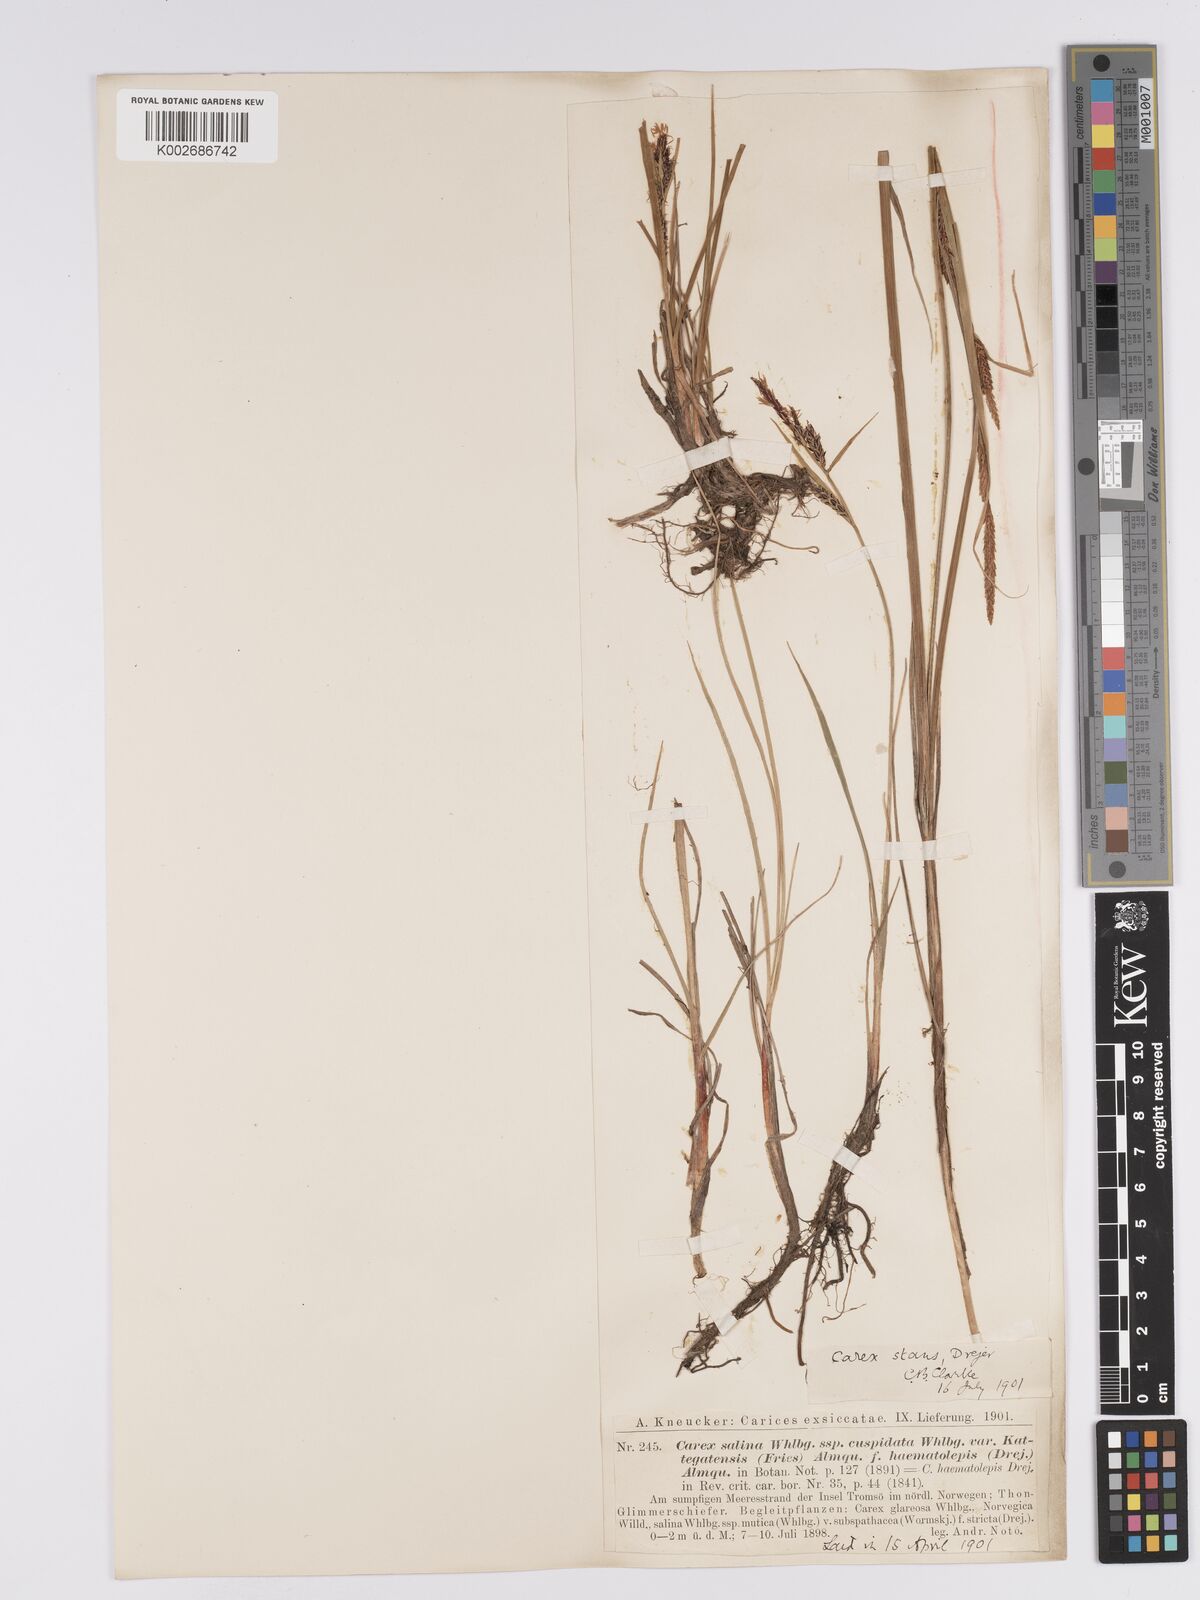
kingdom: Plantae
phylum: Tracheophyta
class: Liliopsida
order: Poales
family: Cyperaceae
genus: Carex
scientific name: Carex aquatilis
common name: Water sedge
